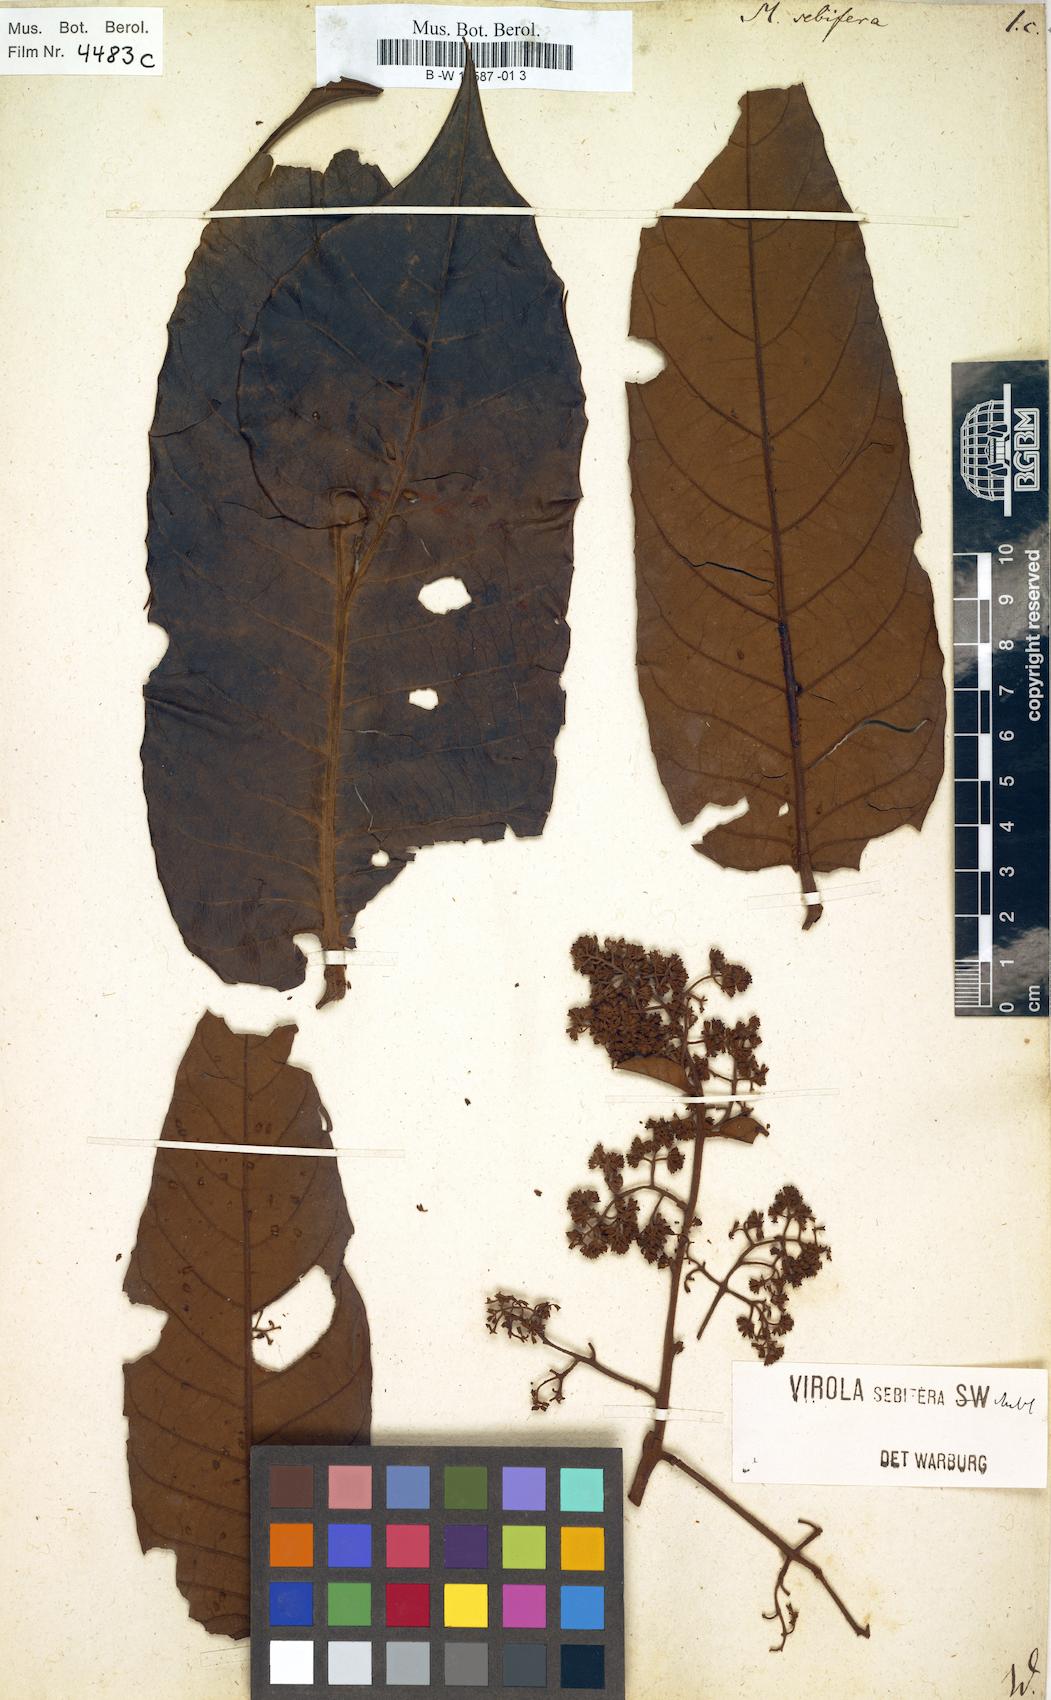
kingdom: Plantae
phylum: Tracheophyta
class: Magnoliopsida
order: Magnoliales
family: Myristicaceae
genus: Myristica
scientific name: Myristica sebifera
